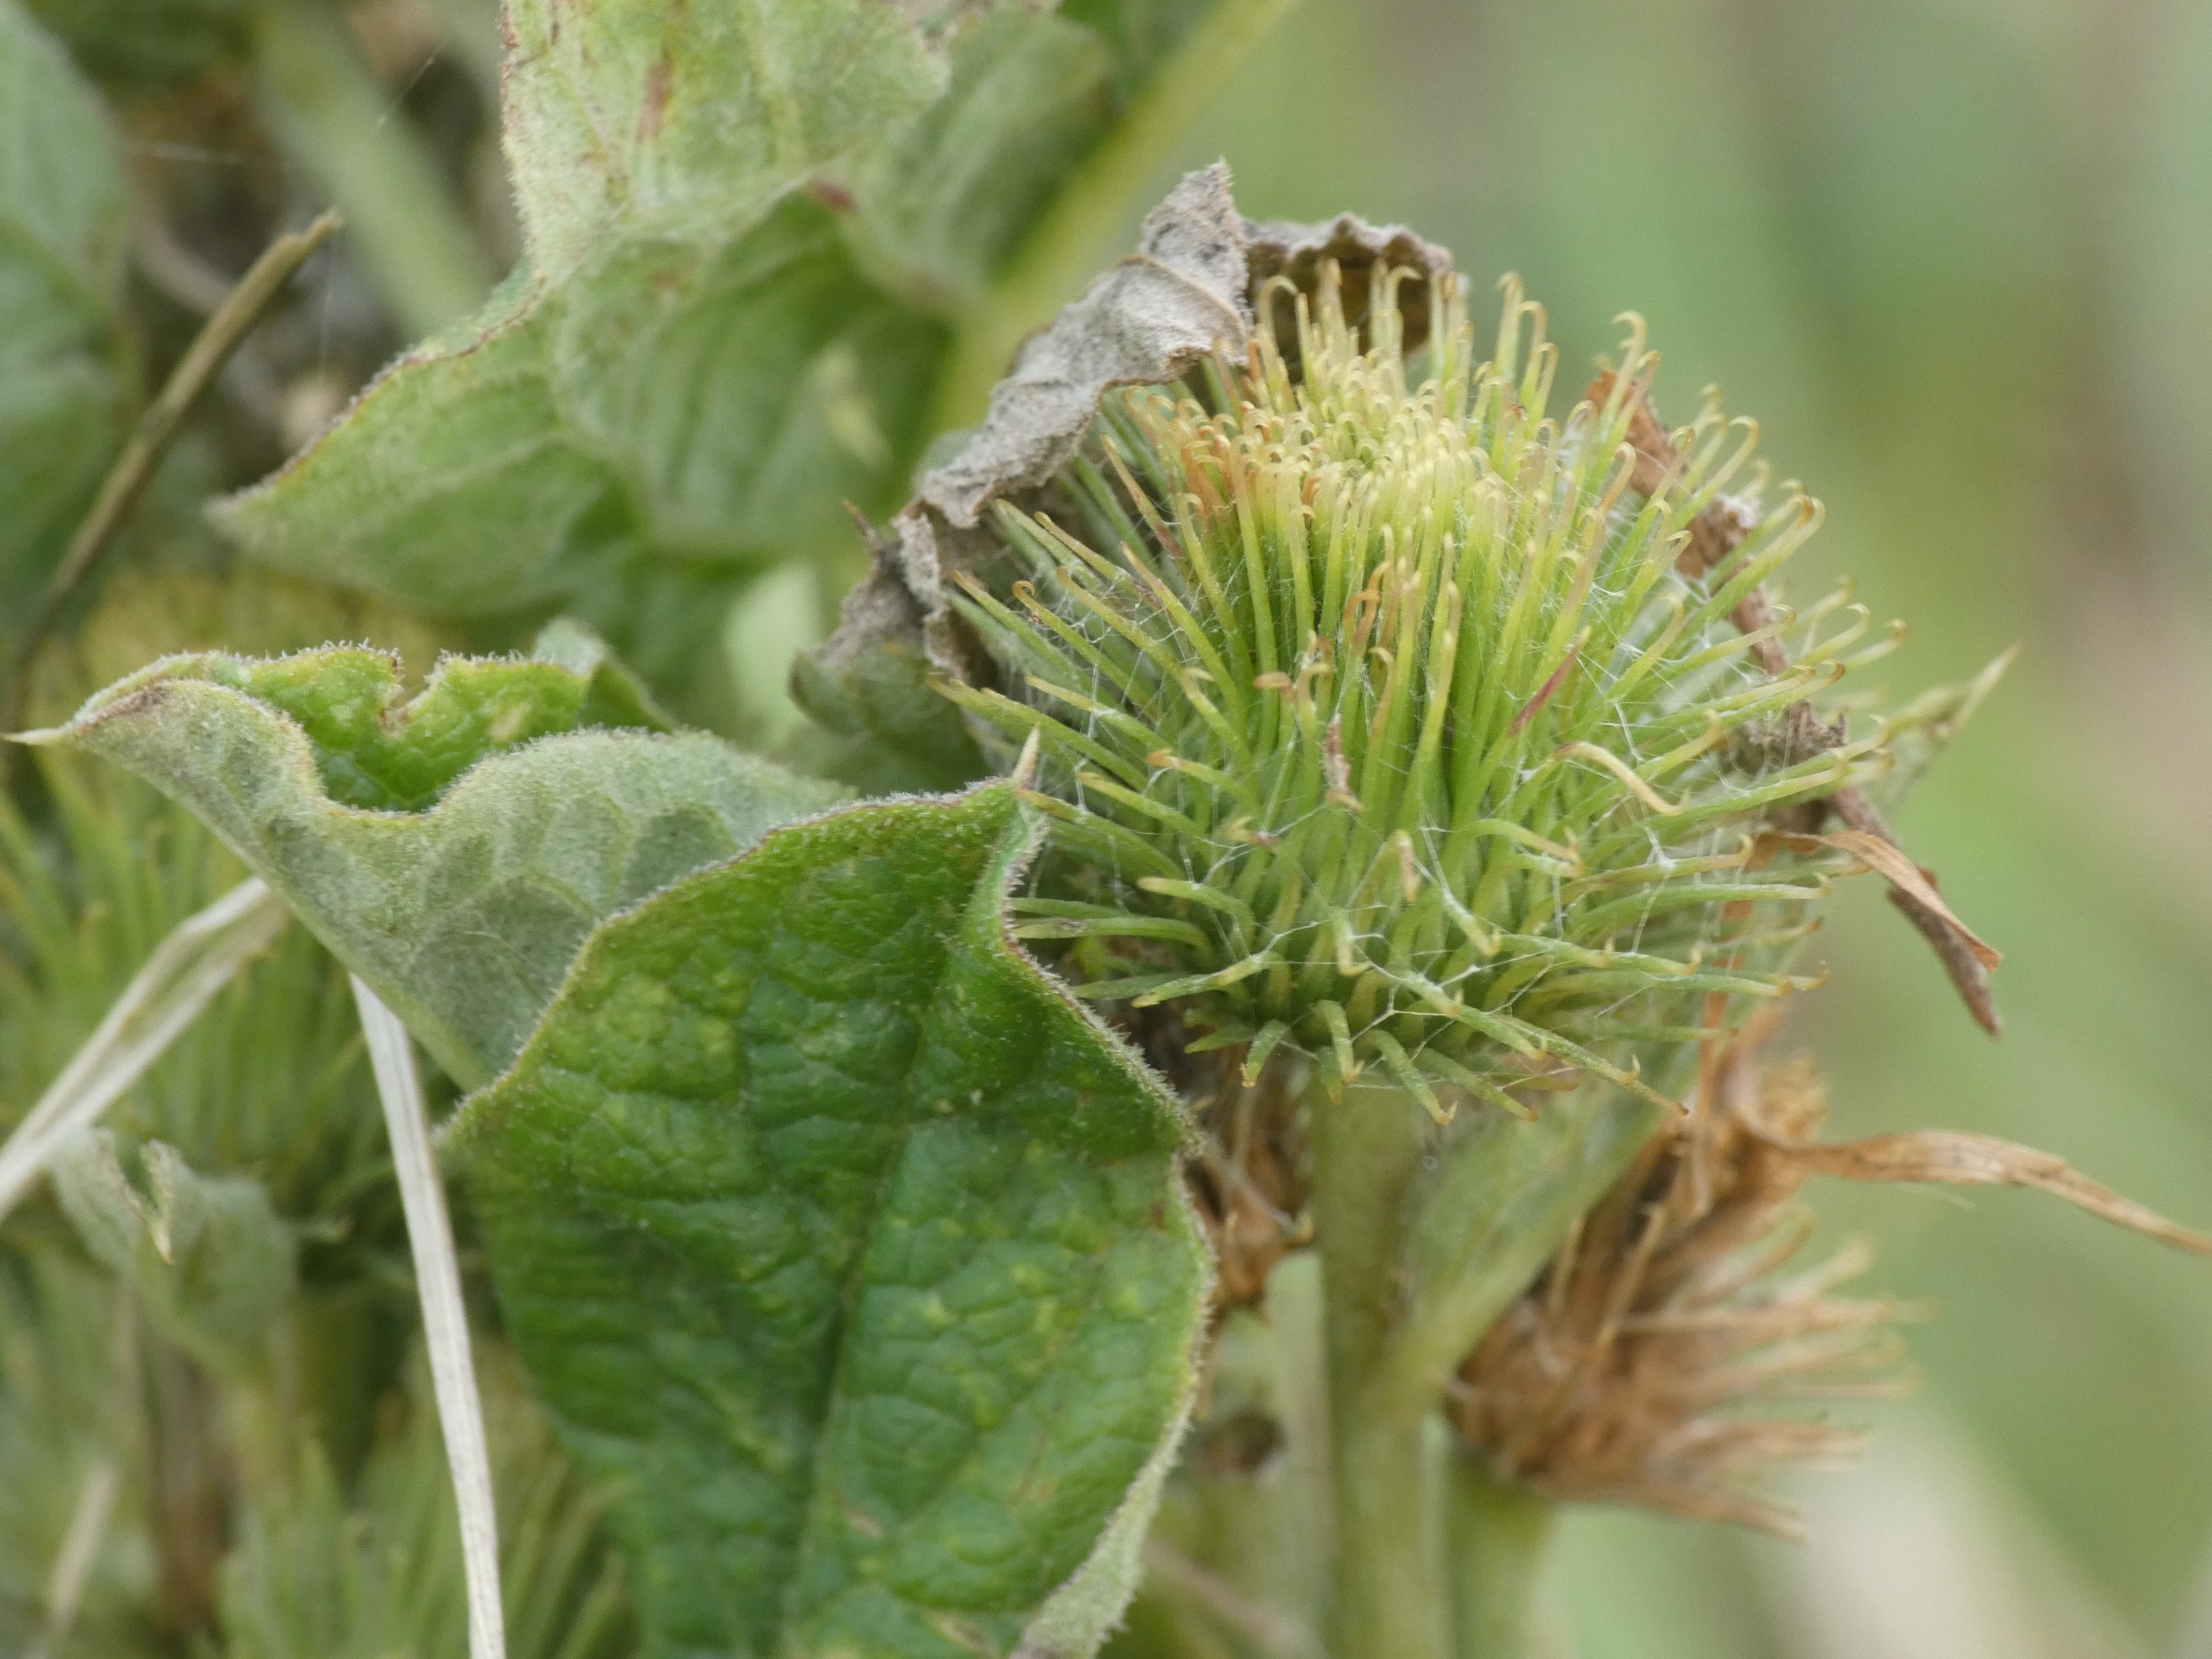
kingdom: Plantae
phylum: Tracheophyta
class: Magnoliopsida
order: Asterales
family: Asteraceae
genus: Arctium
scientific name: Arctium
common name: Burreslægten
